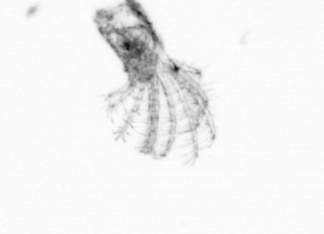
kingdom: Animalia
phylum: Arthropoda
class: Maxillopoda
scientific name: Maxillopoda
